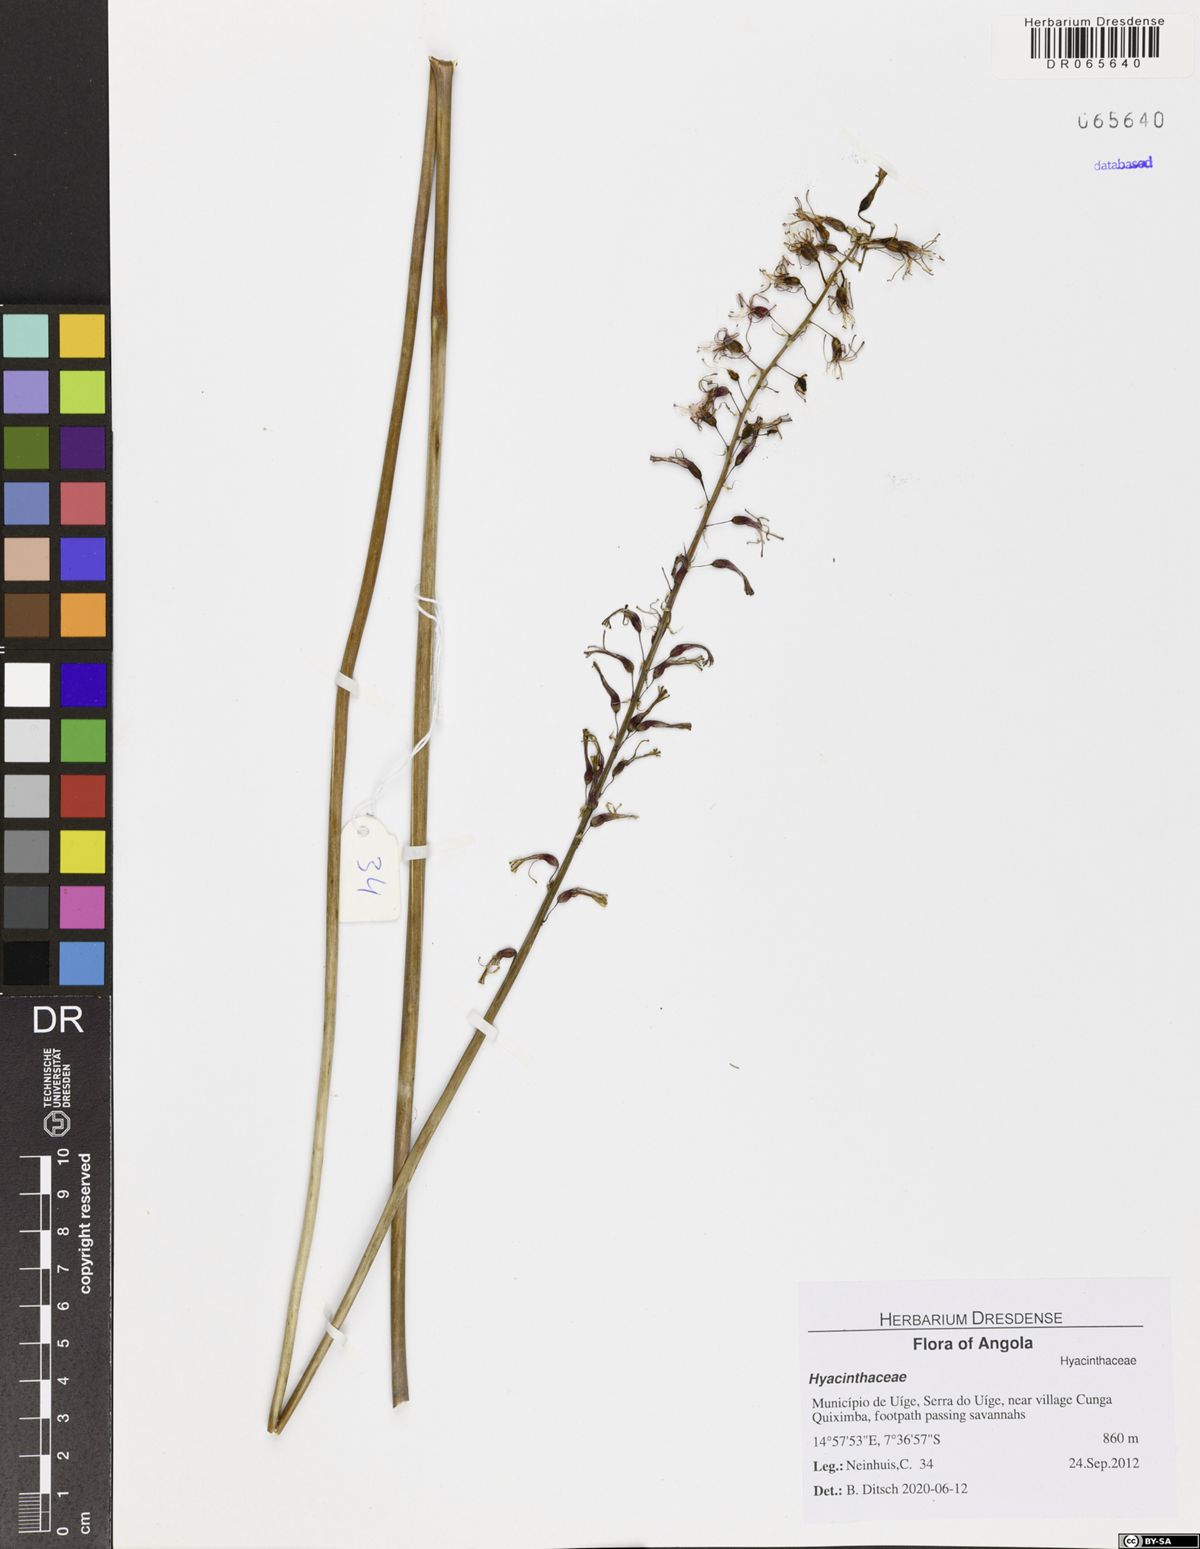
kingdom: Plantae
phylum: Tracheophyta
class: Liliopsida
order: Asparagales
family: Hyacinthaceae
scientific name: Hyacinthaceae
